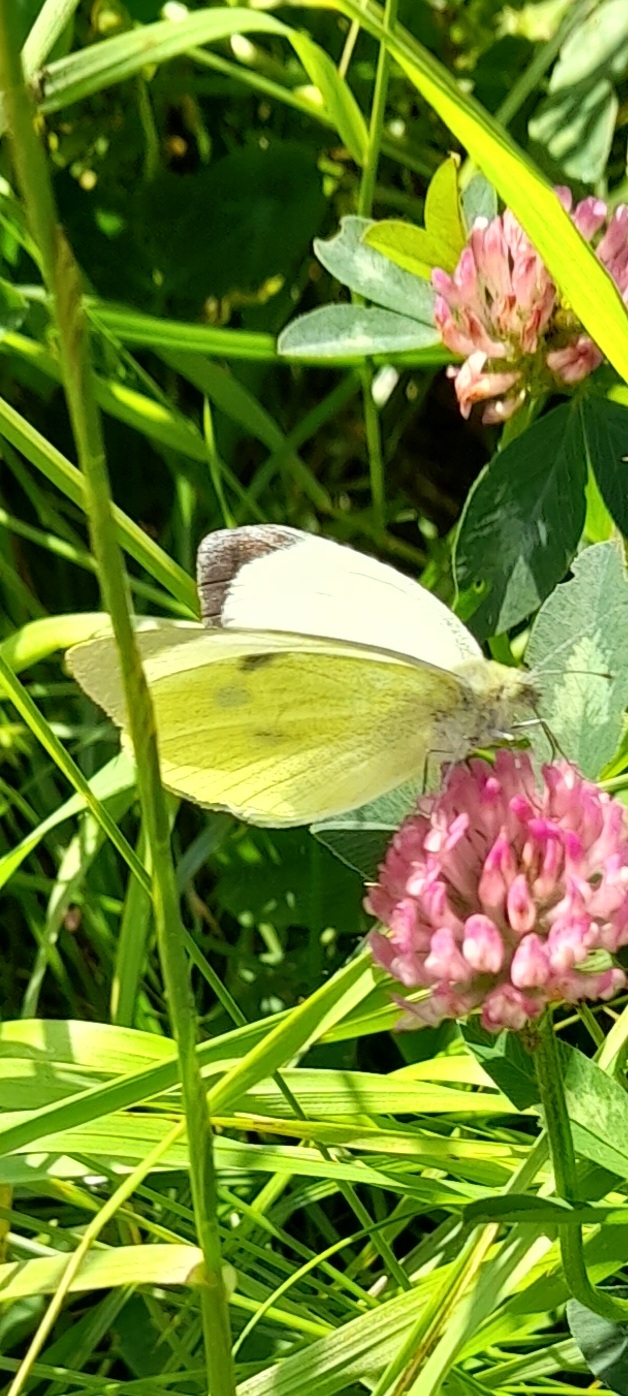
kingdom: Animalia
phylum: Arthropoda
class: Insecta
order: Lepidoptera
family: Pieridae
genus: Pieris
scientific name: Pieris brassicae
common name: Stor kålsommerfugl
